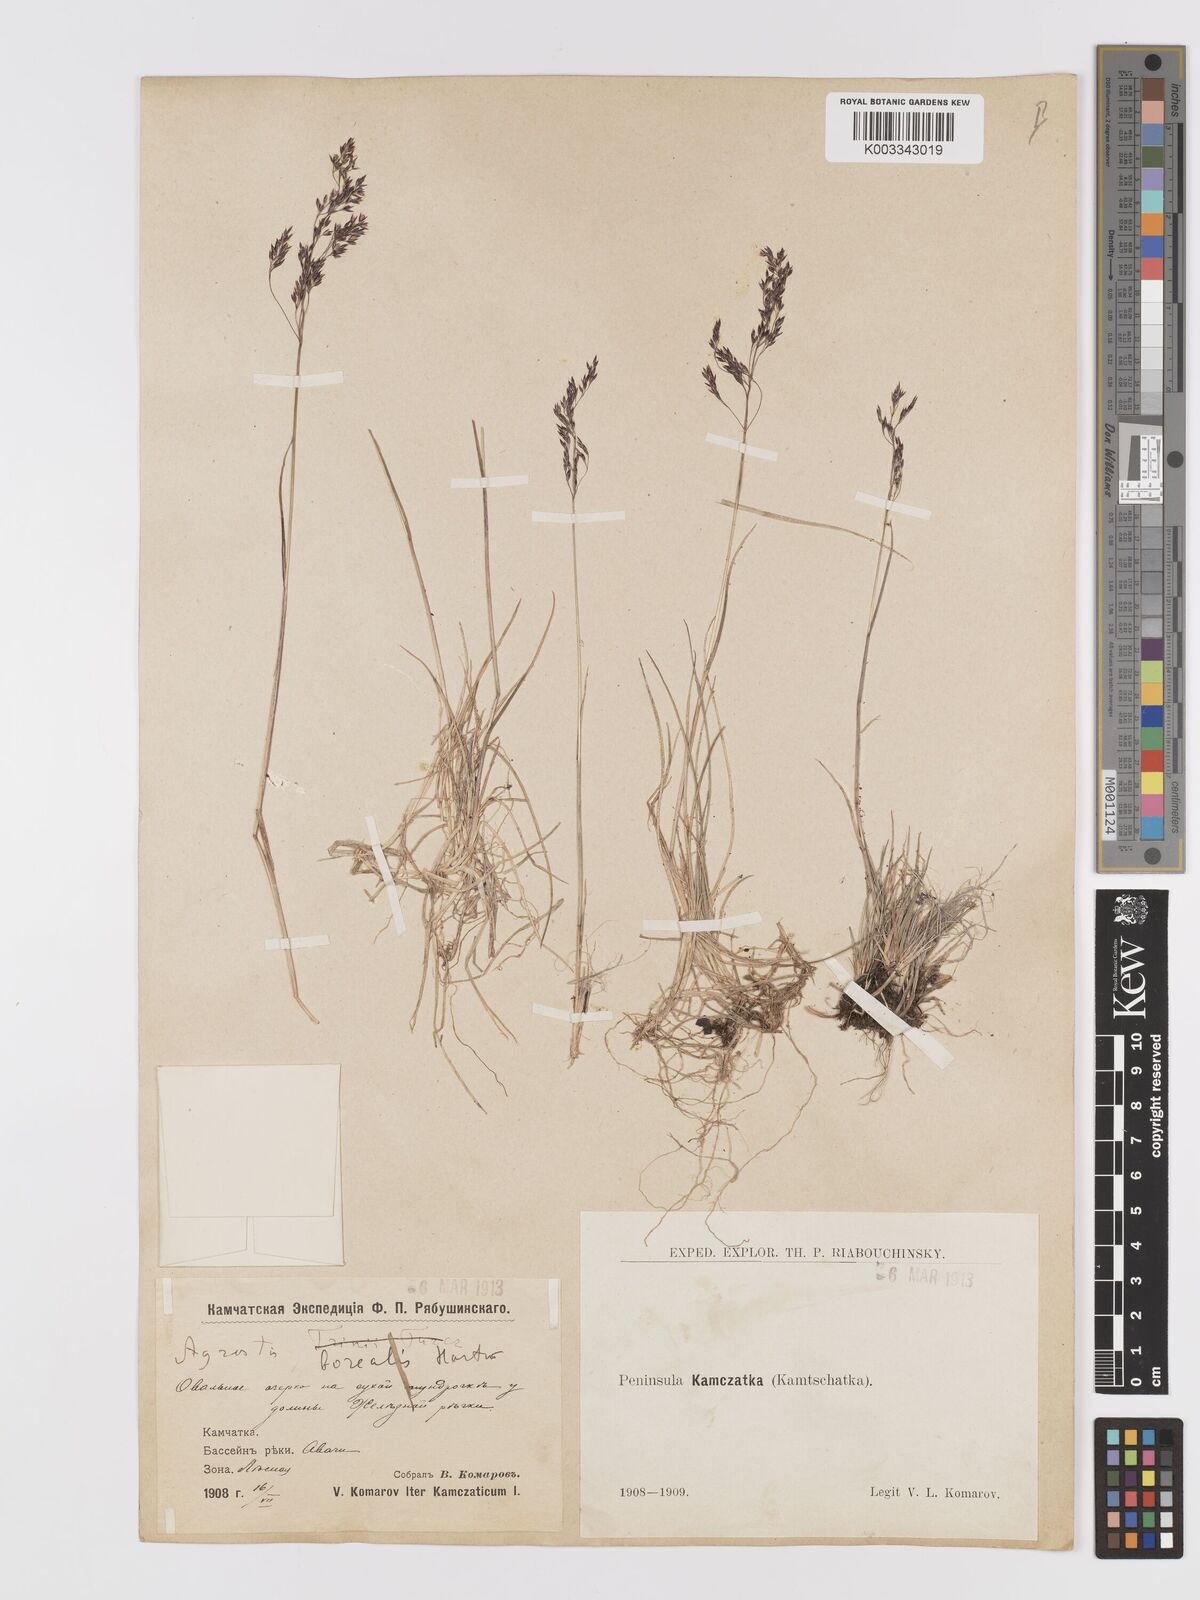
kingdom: Plantae
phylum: Tracheophyta
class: Liliopsida
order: Poales
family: Poaceae
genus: Agrostis
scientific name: Agrostis mertensii
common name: Northern bent
